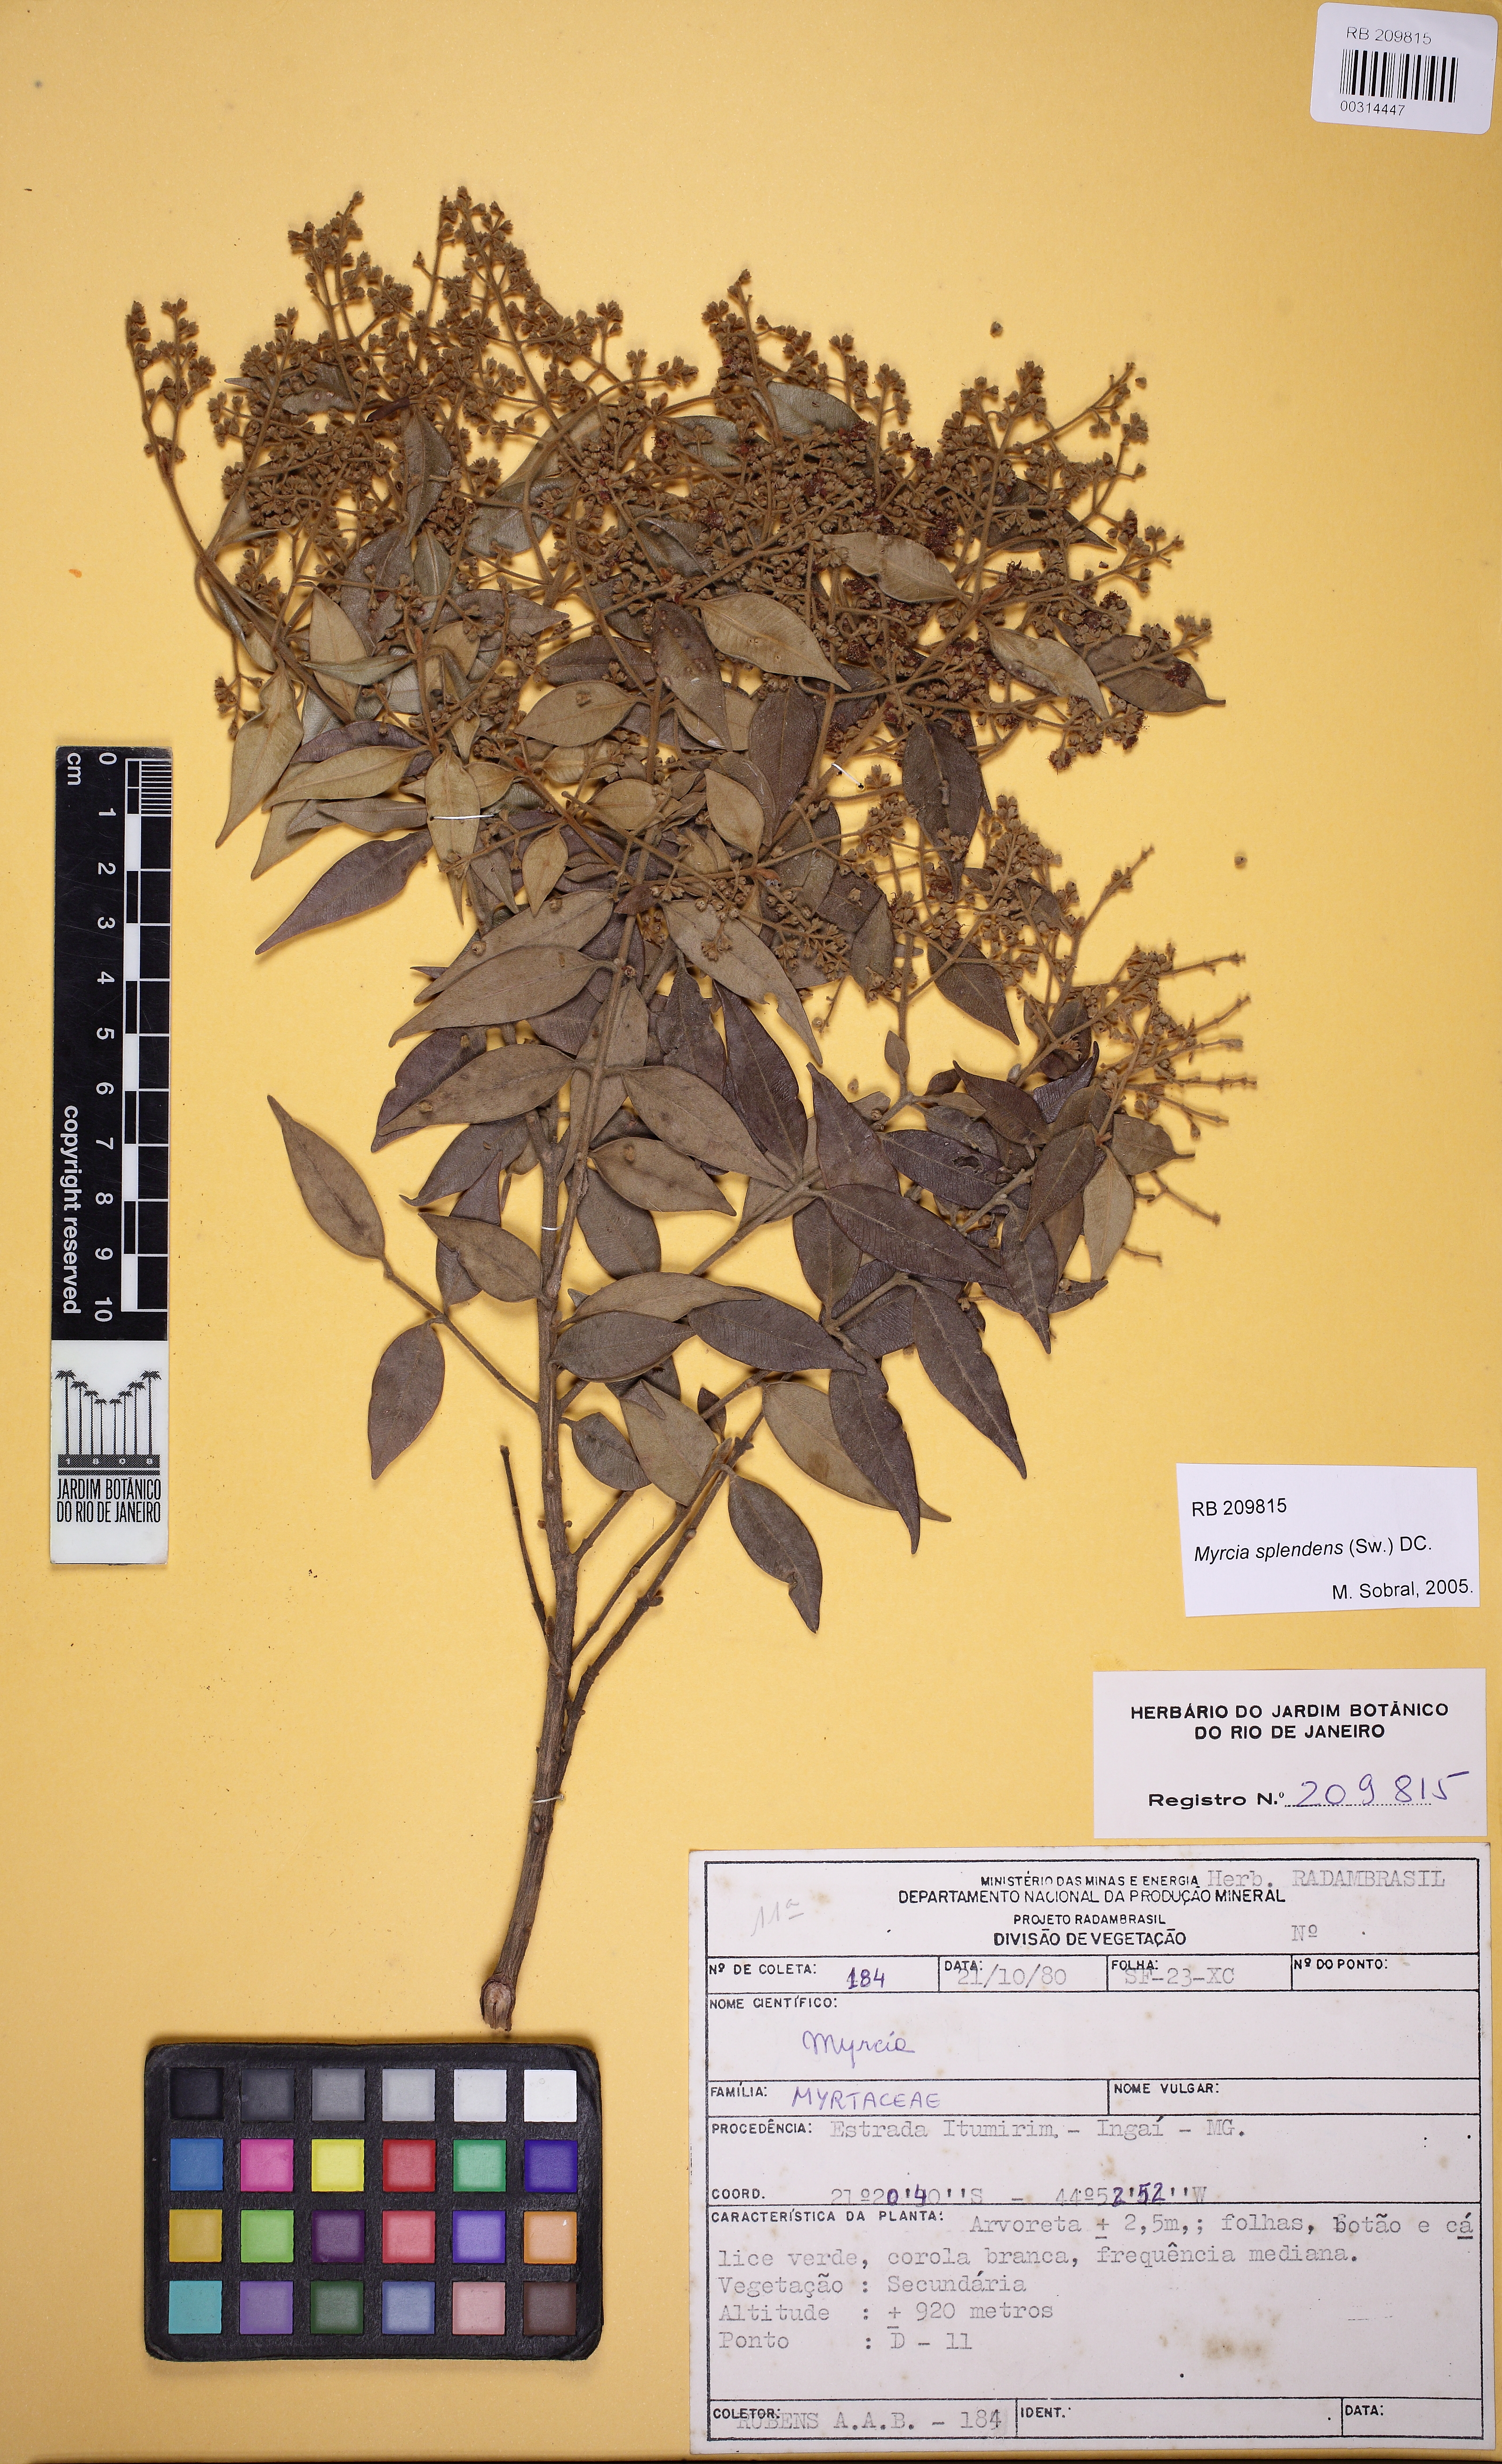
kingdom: Plantae
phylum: Tracheophyta
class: Magnoliopsida
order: Myrtales
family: Myrtaceae
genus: Myrcia
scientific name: Myrcia splendens
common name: Surinam cherry
